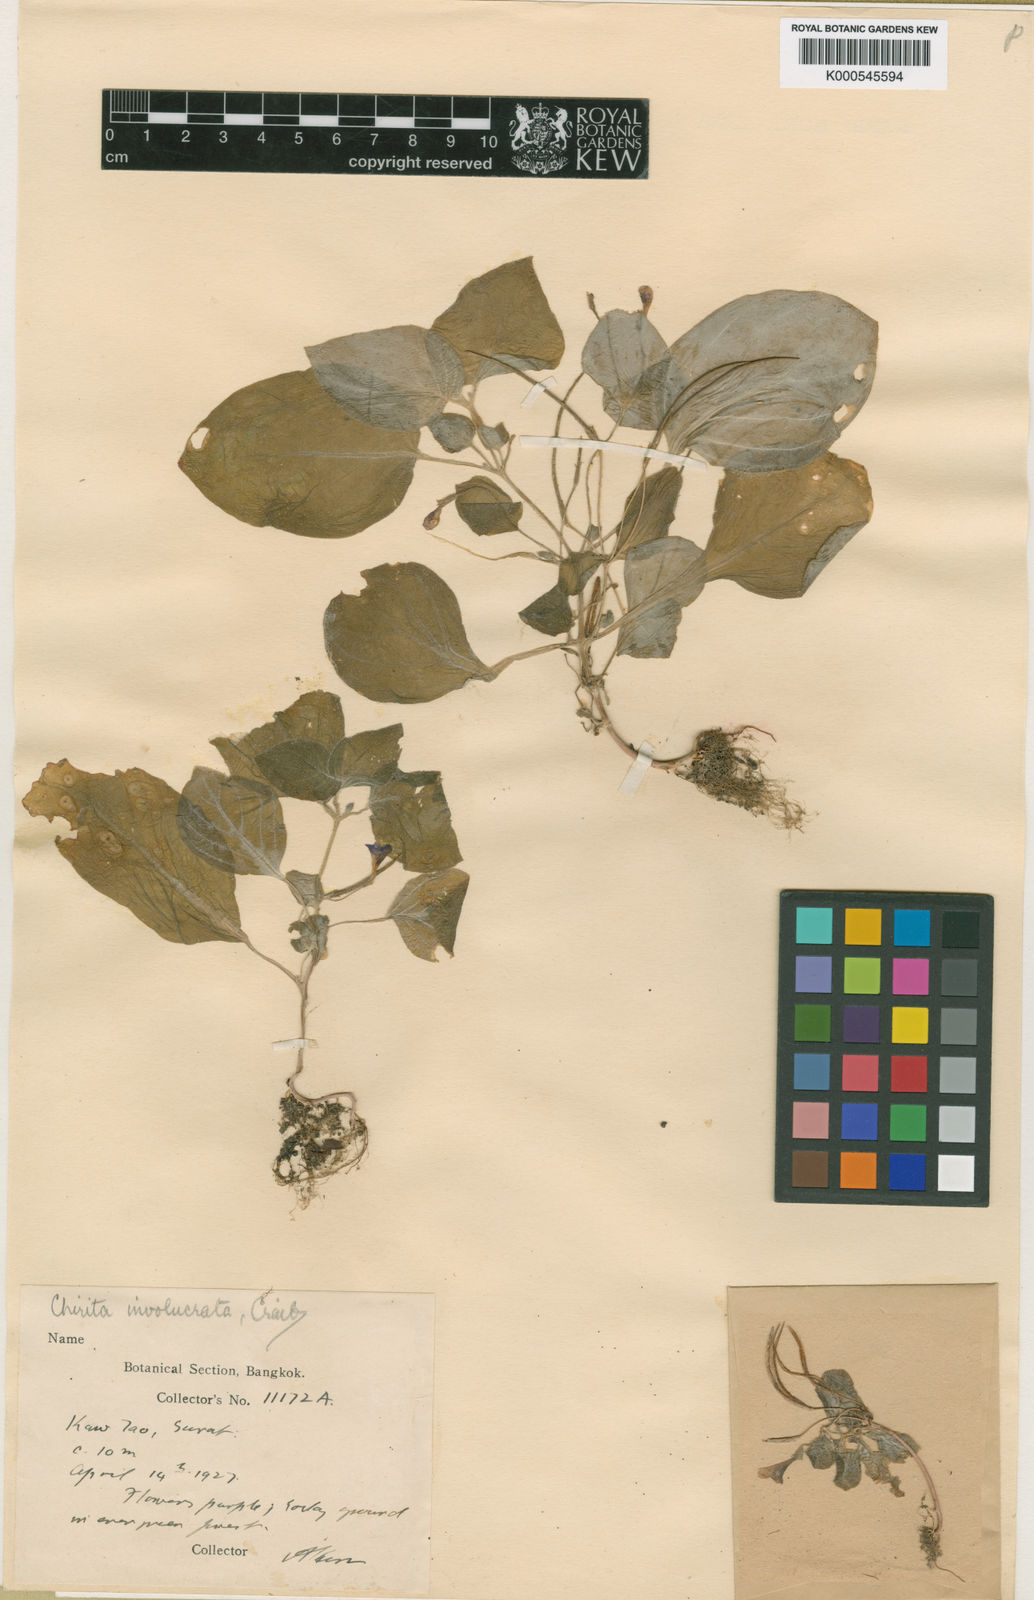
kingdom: Plantae
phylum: Tracheophyta
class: Magnoliopsida
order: Lamiales
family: Gesneriaceae
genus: Microchirita
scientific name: Microchirita involucrata
